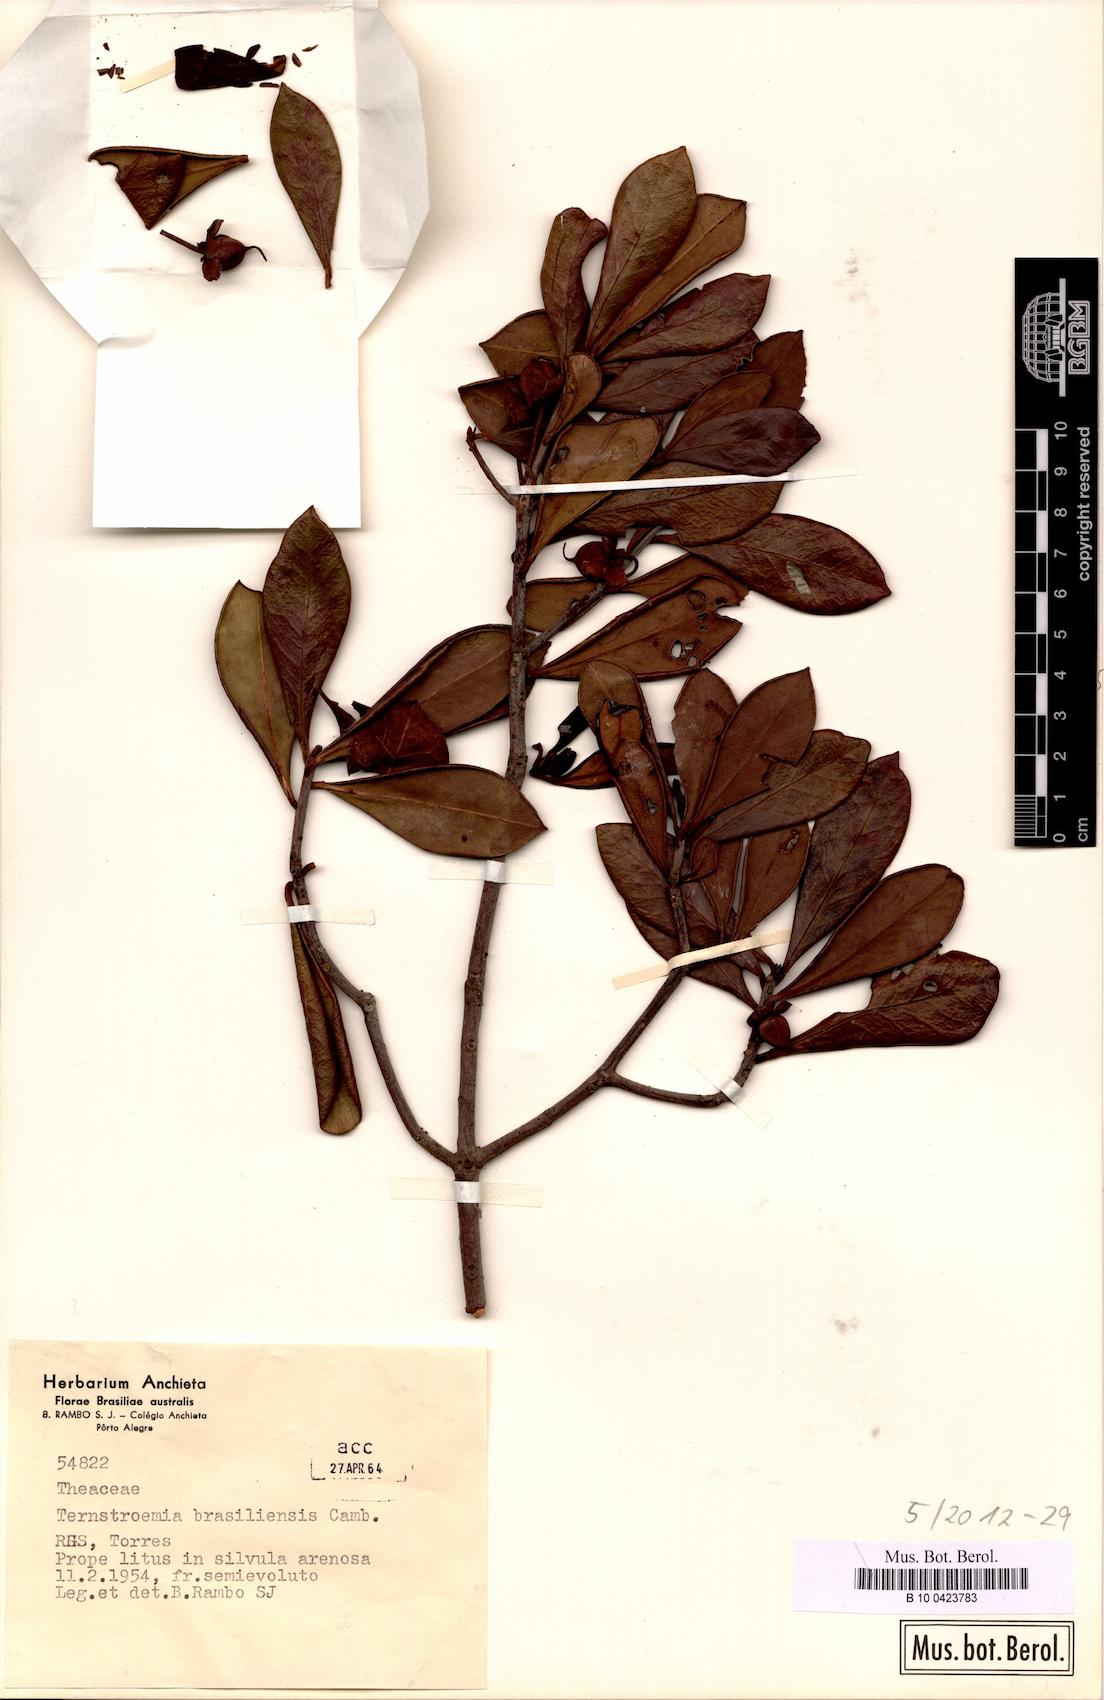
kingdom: Plantae
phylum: Tracheophyta
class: Magnoliopsida
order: Ericales
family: Pentaphylacaceae
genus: Ternstroemia
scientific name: Ternstroemia brasiliensis
